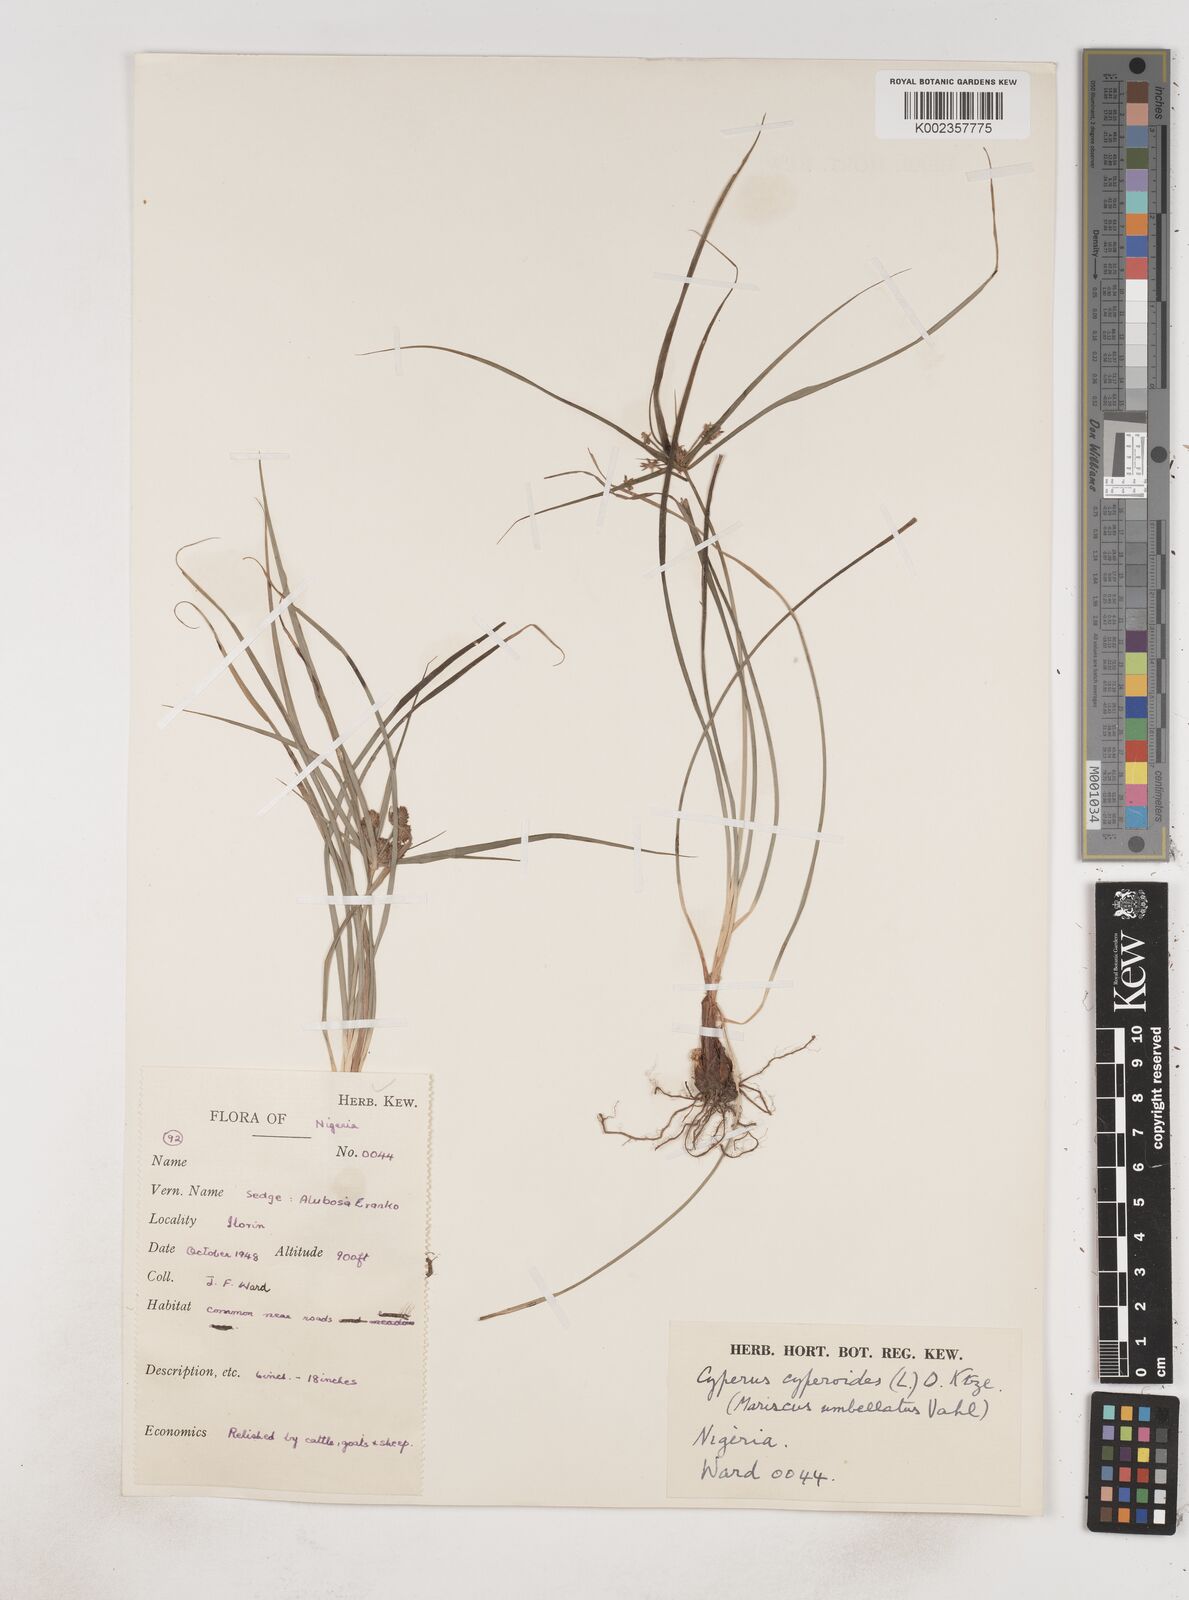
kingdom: Plantae
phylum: Tracheophyta
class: Liliopsida
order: Poales
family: Cyperaceae
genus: Cyperus
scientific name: Cyperus sublimis
